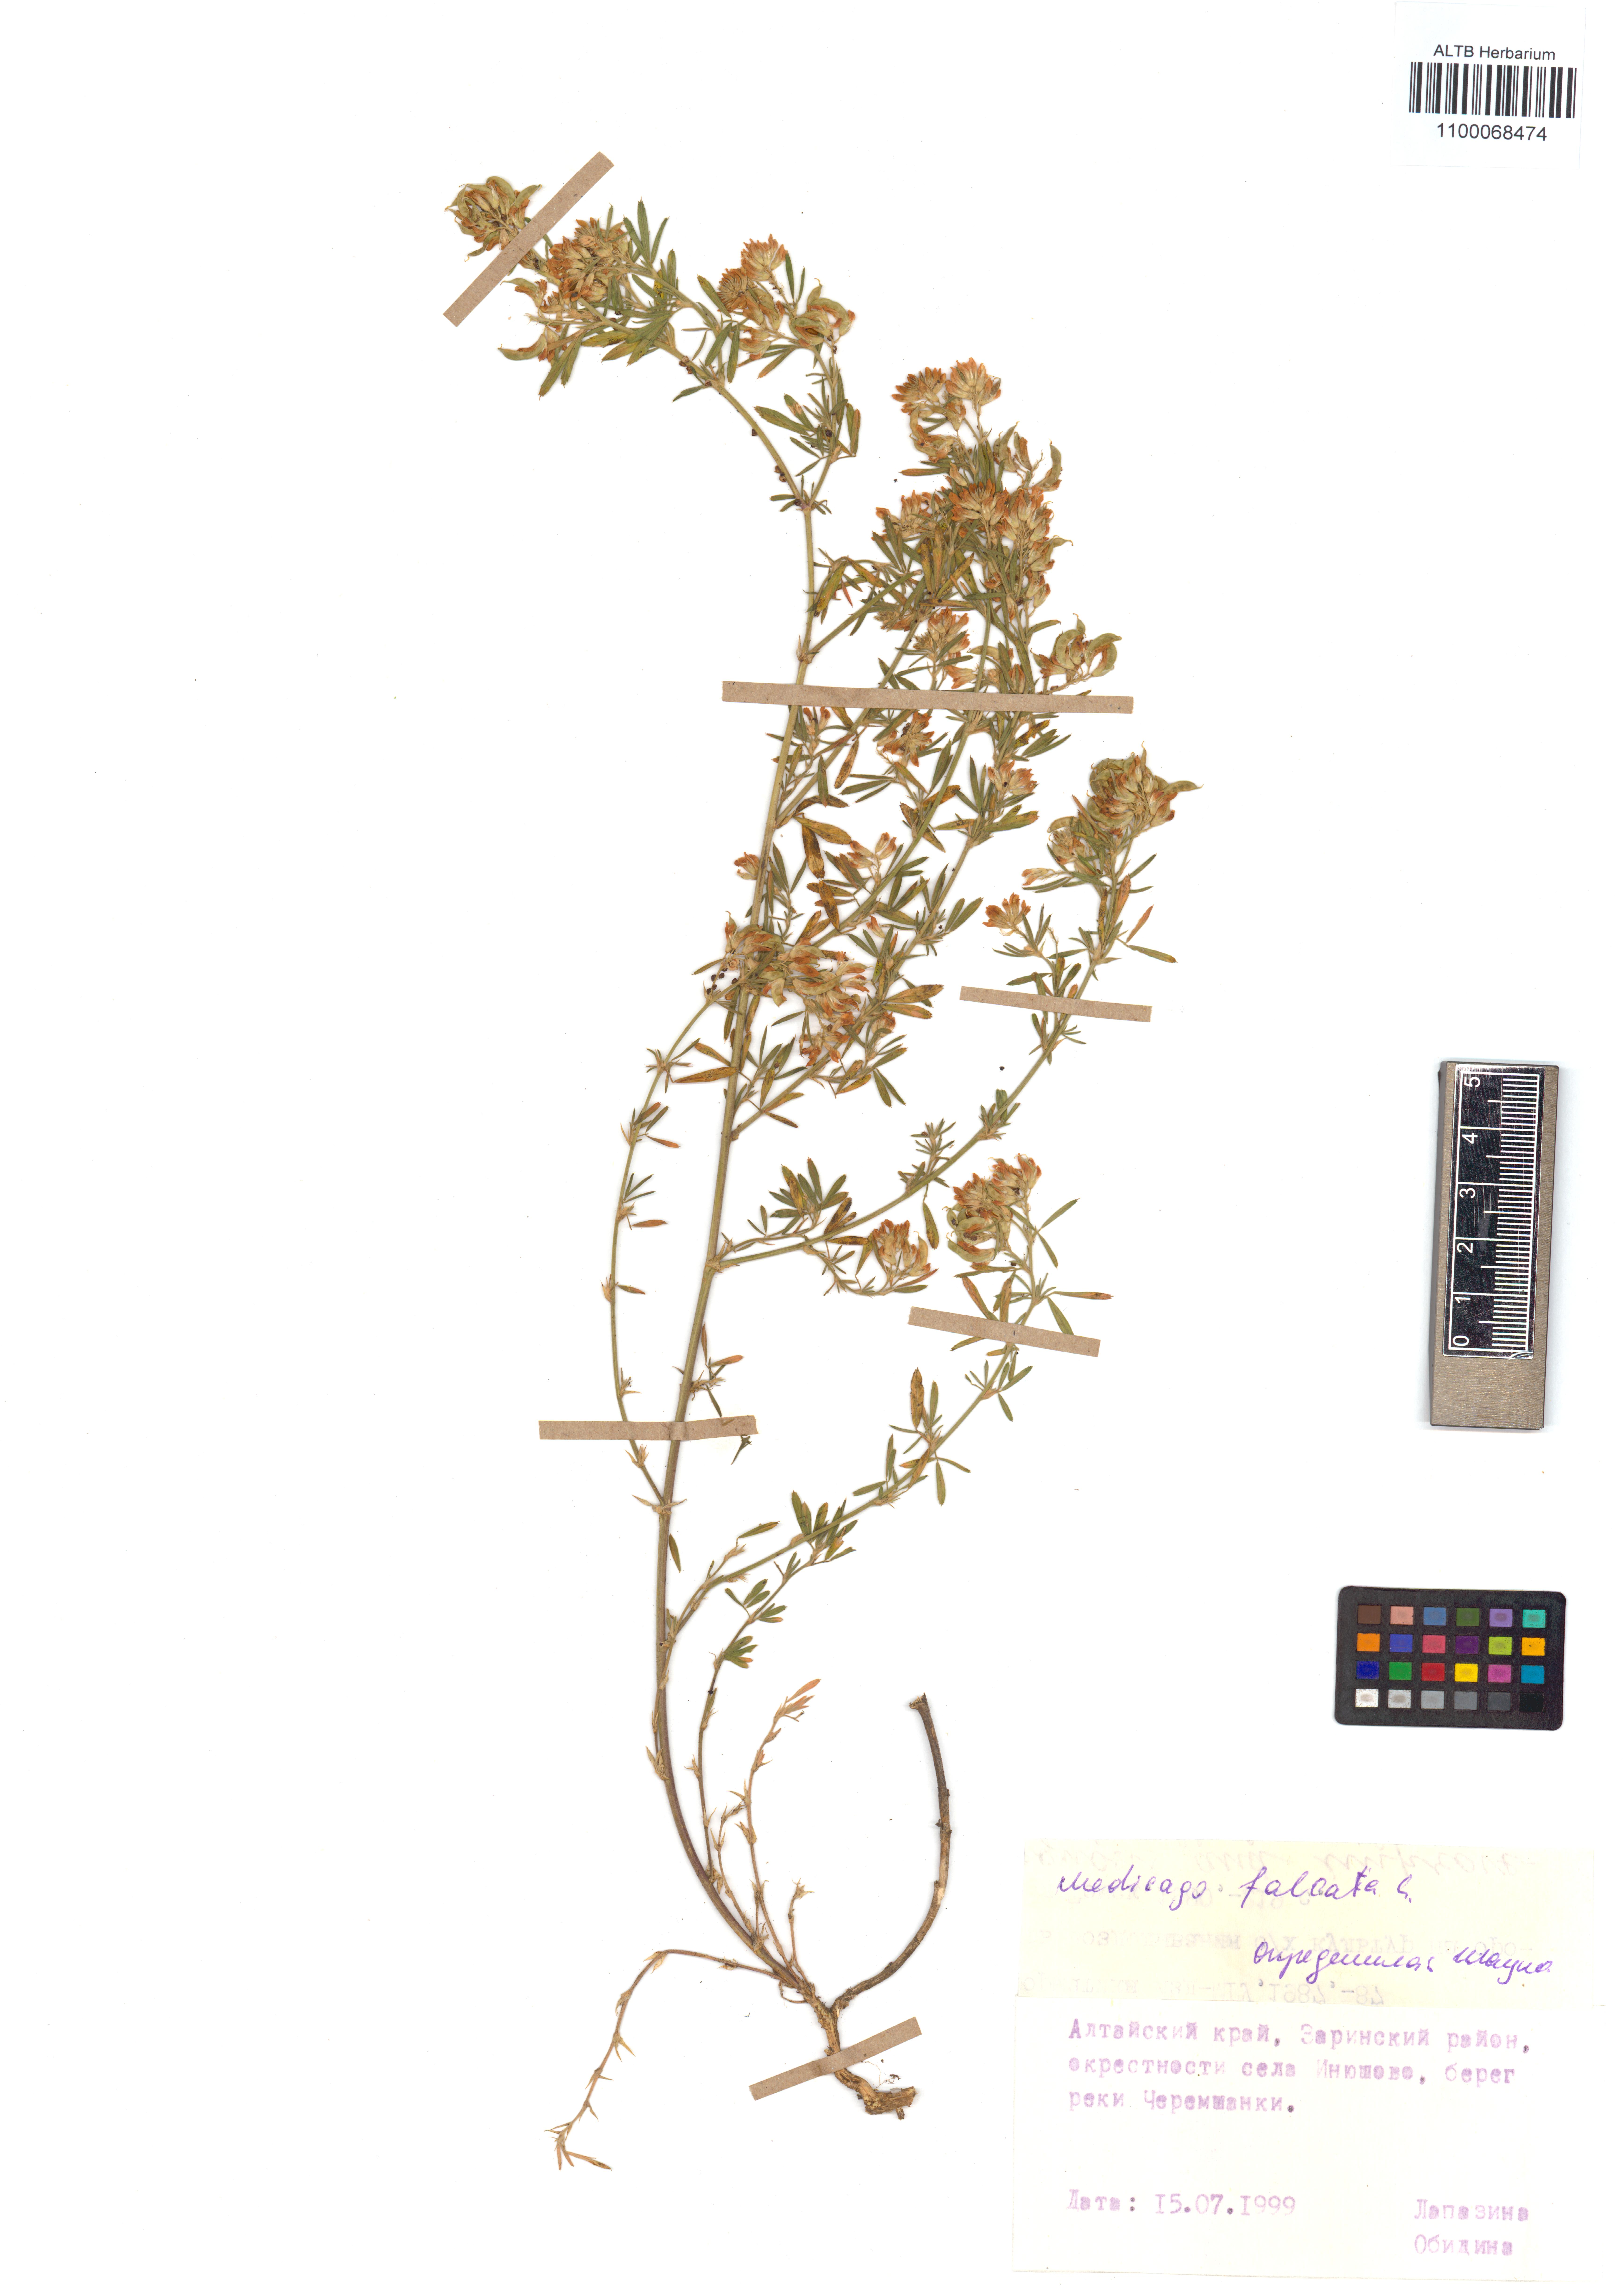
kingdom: Plantae
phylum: Tracheophyta
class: Magnoliopsida
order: Fabales
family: Fabaceae
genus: Medicago
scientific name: Medicago falcata
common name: Sickle medick
